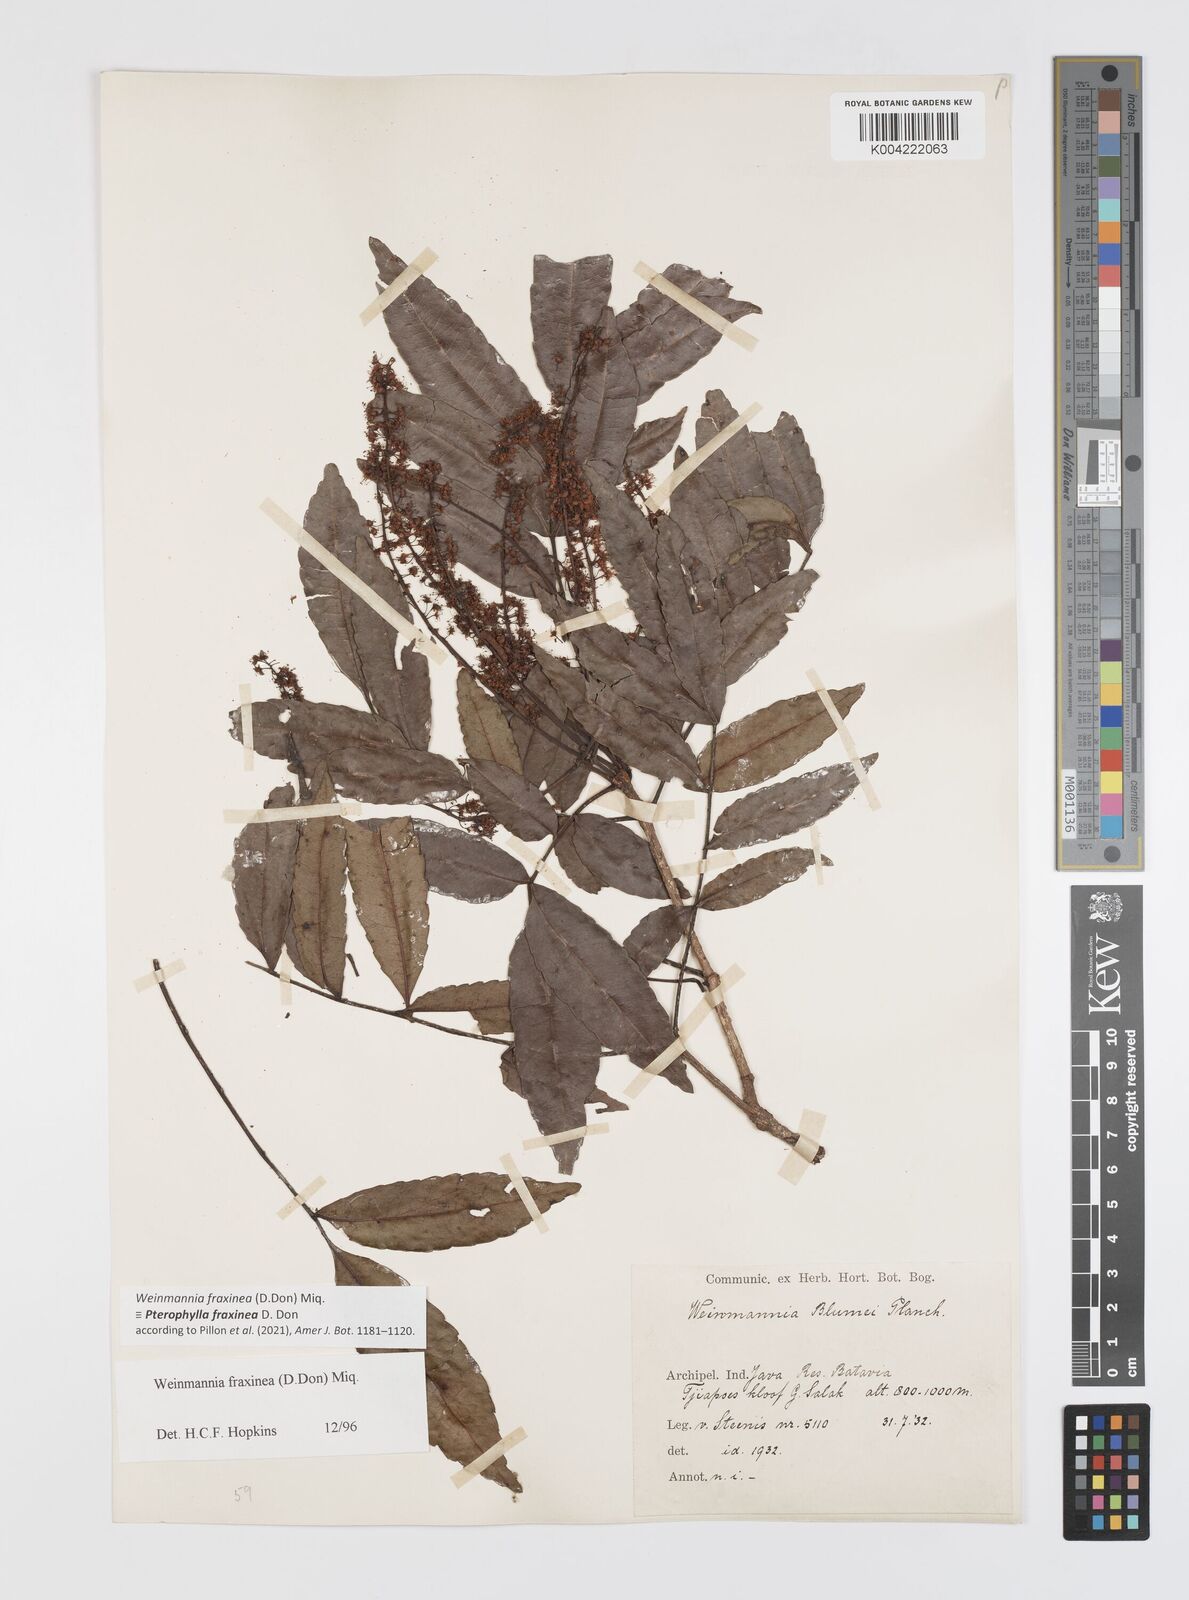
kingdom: Plantae
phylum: Tracheophyta
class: Magnoliopsida
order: Oxalidales
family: Cunoniaceae
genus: Pterophylla
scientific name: Pterophylla fraxinea
